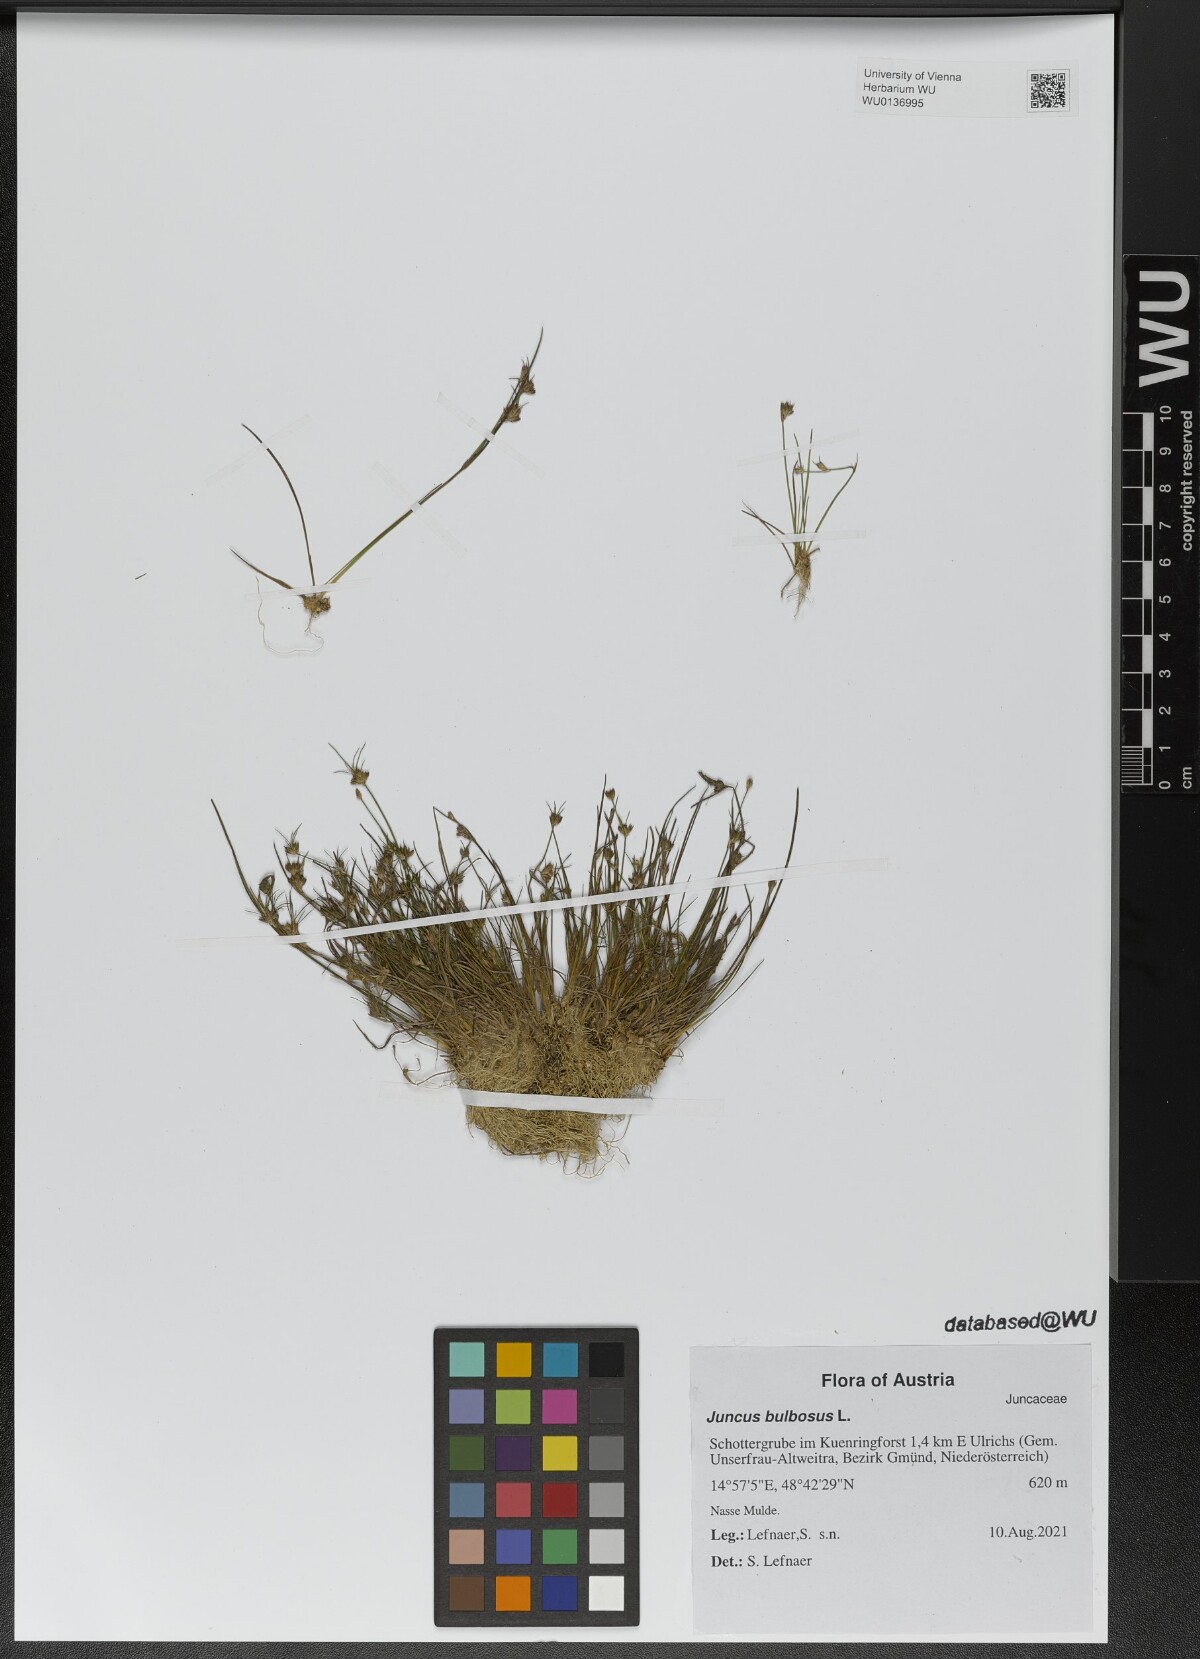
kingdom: Plantae
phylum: Tracheophyta
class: Liliopsida
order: Poales
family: Juncaceae
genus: Juncus
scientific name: Juncus bulbosus
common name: Bulbous rush
